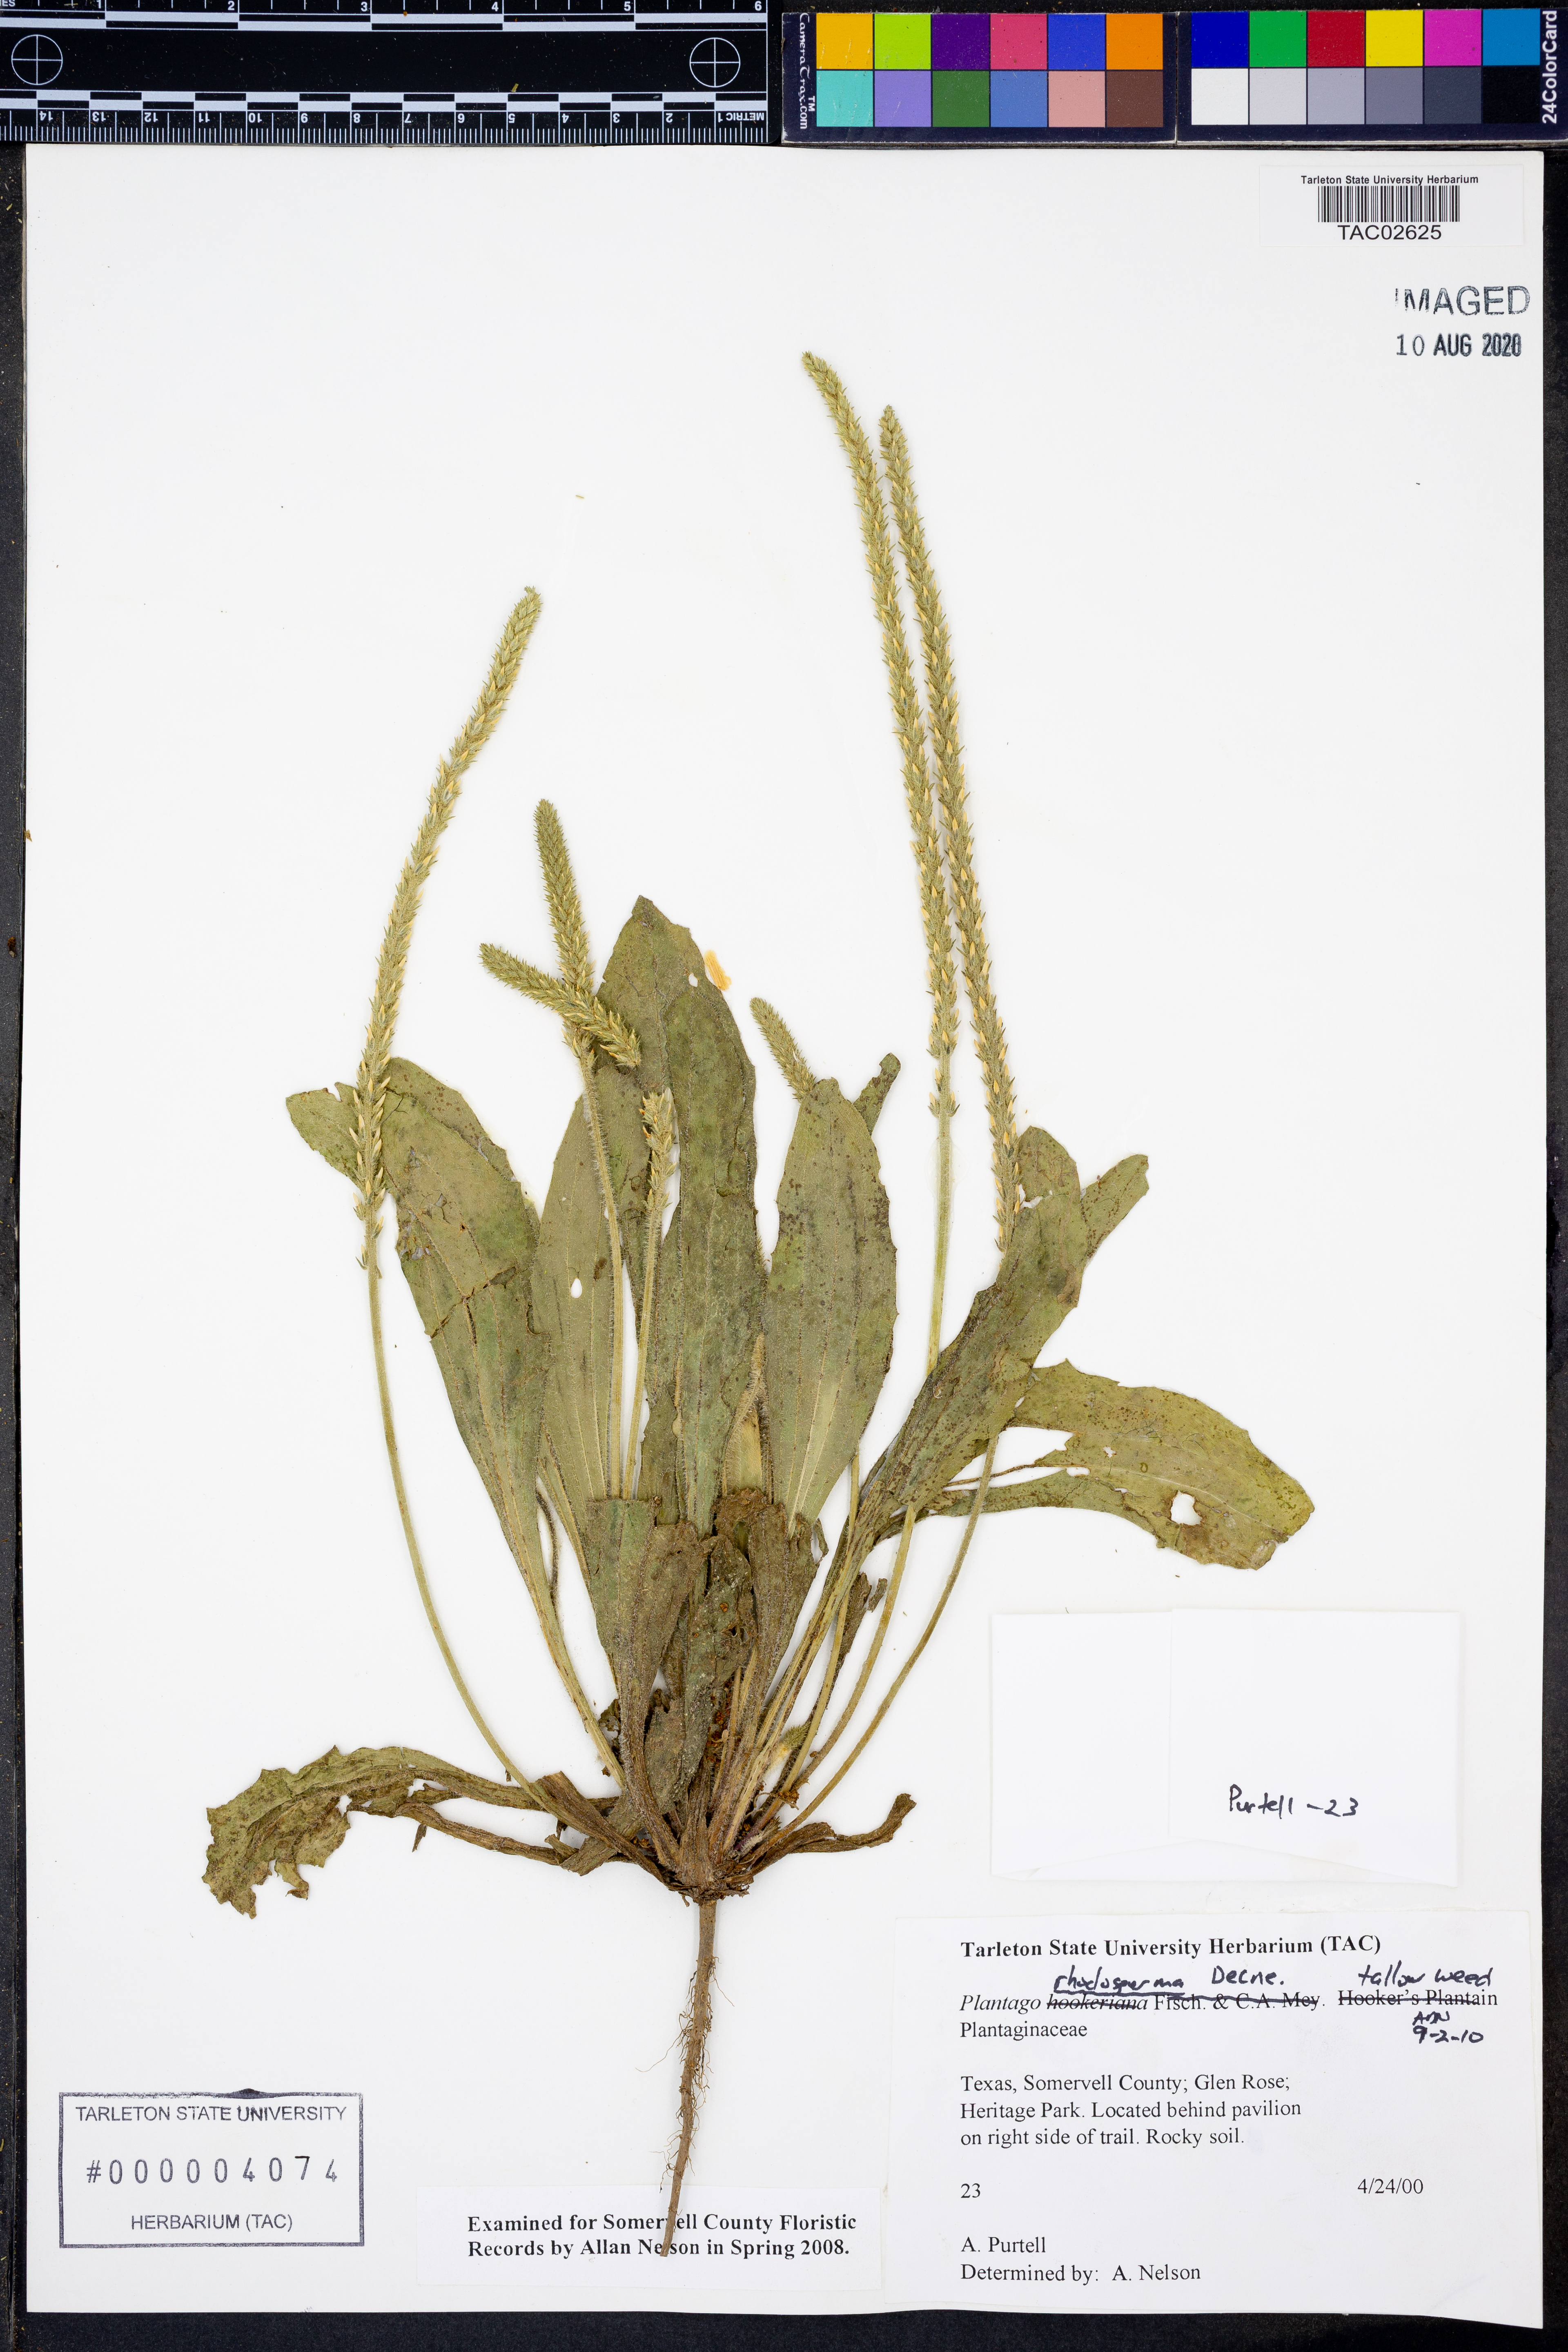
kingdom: Plantae
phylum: Tracheophyta
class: Magnoliopsida
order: Lamiales
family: Plantaginaceae
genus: Plantago
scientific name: Plantago rhodosperma
